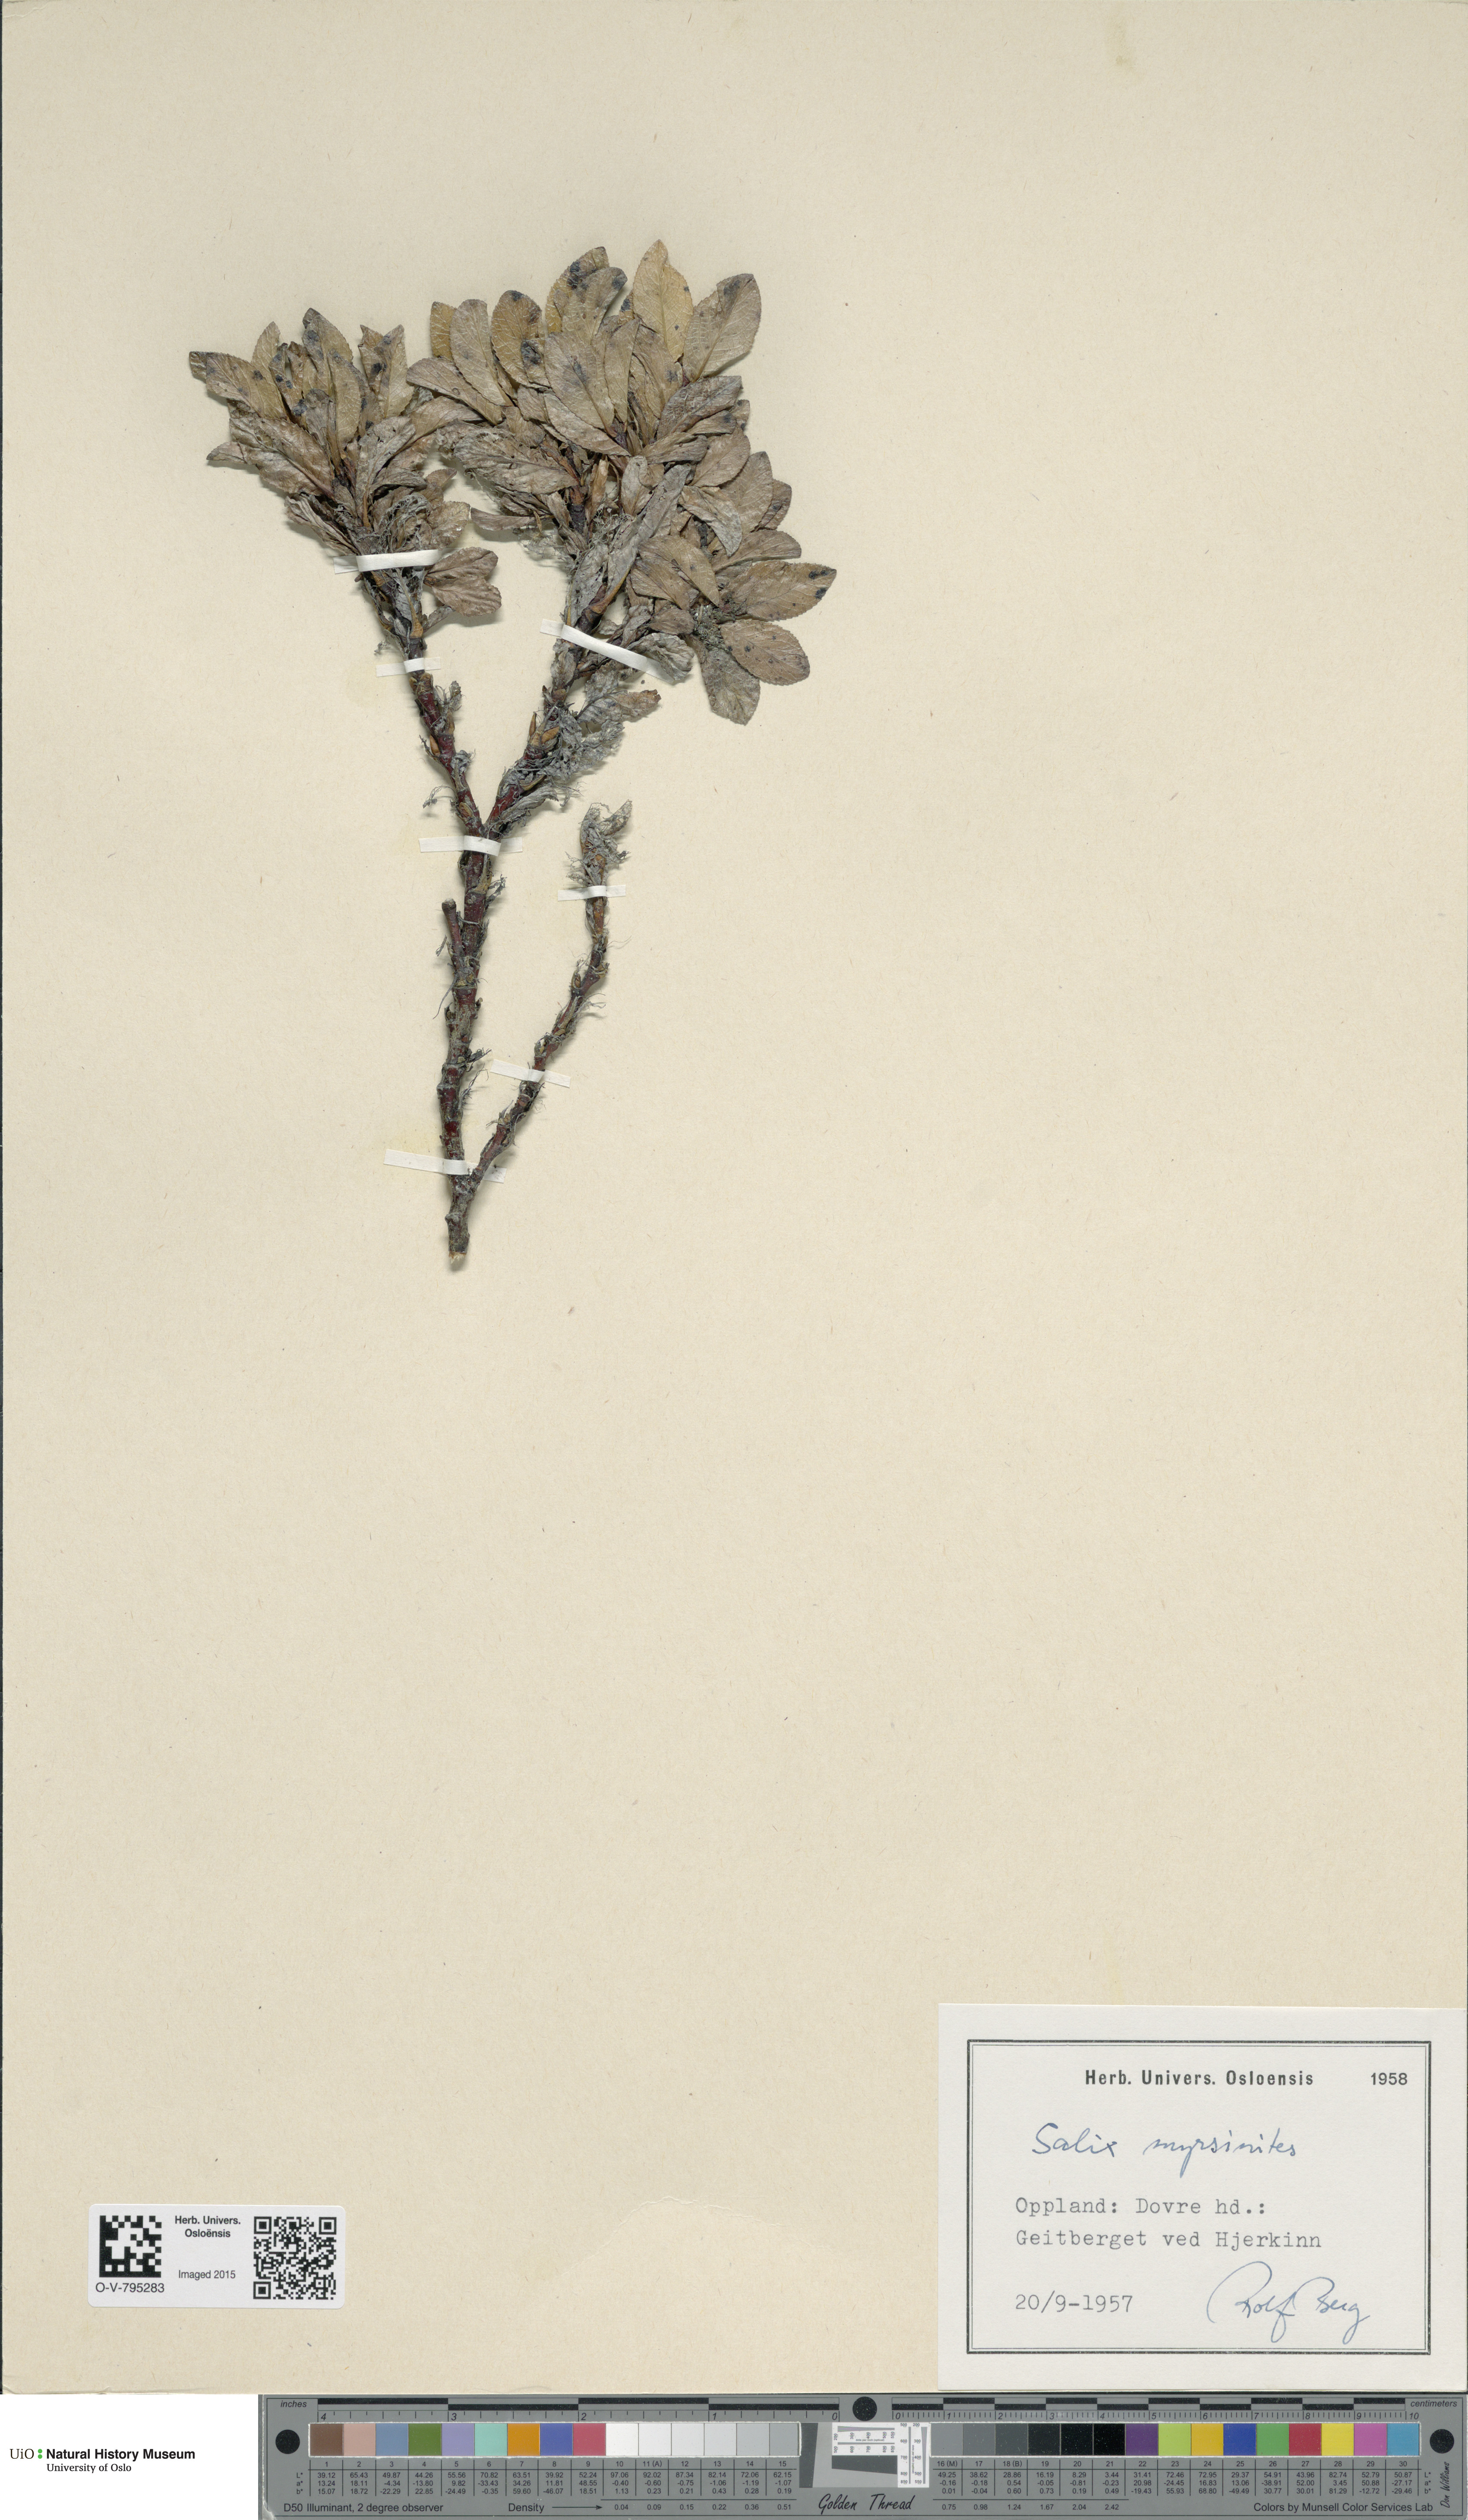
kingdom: Plantae
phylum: Tracheophyta
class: Magnoliopsida
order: Malpighiales
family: Salicaceae
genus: Salix
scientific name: Salix myrsinites
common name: Myrtle willow
